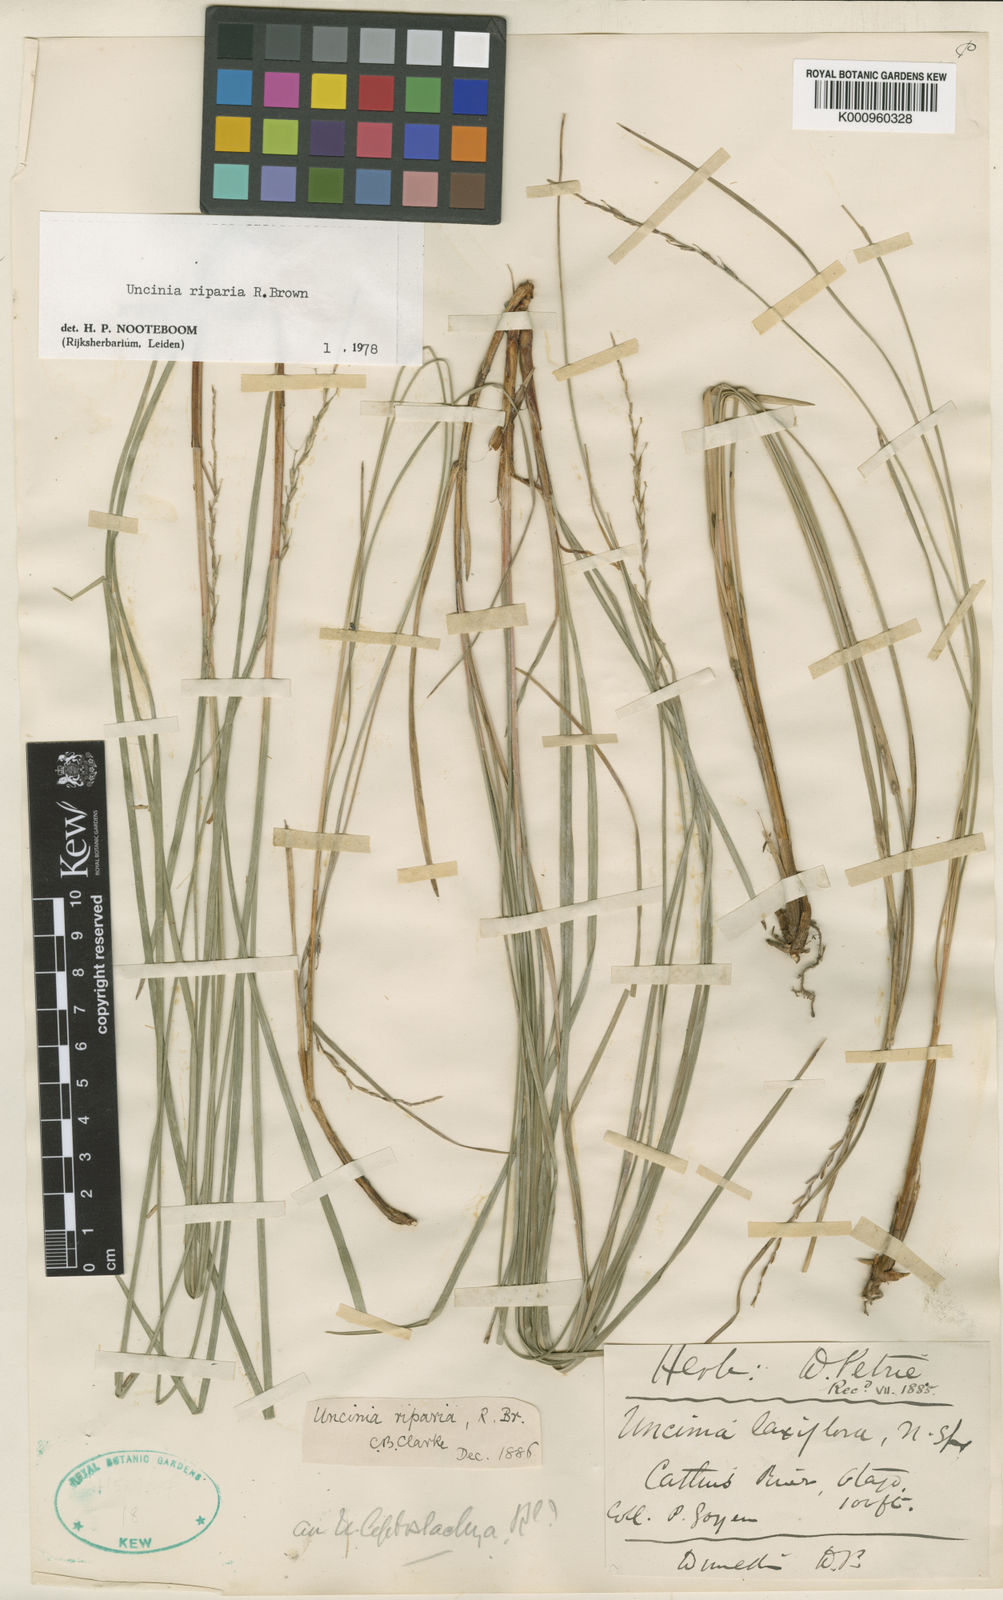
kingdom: Plantae
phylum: Tracheophyta
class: Liliopsida
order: Poales
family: Cyperaceae
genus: Carex
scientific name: Carex umbricola
